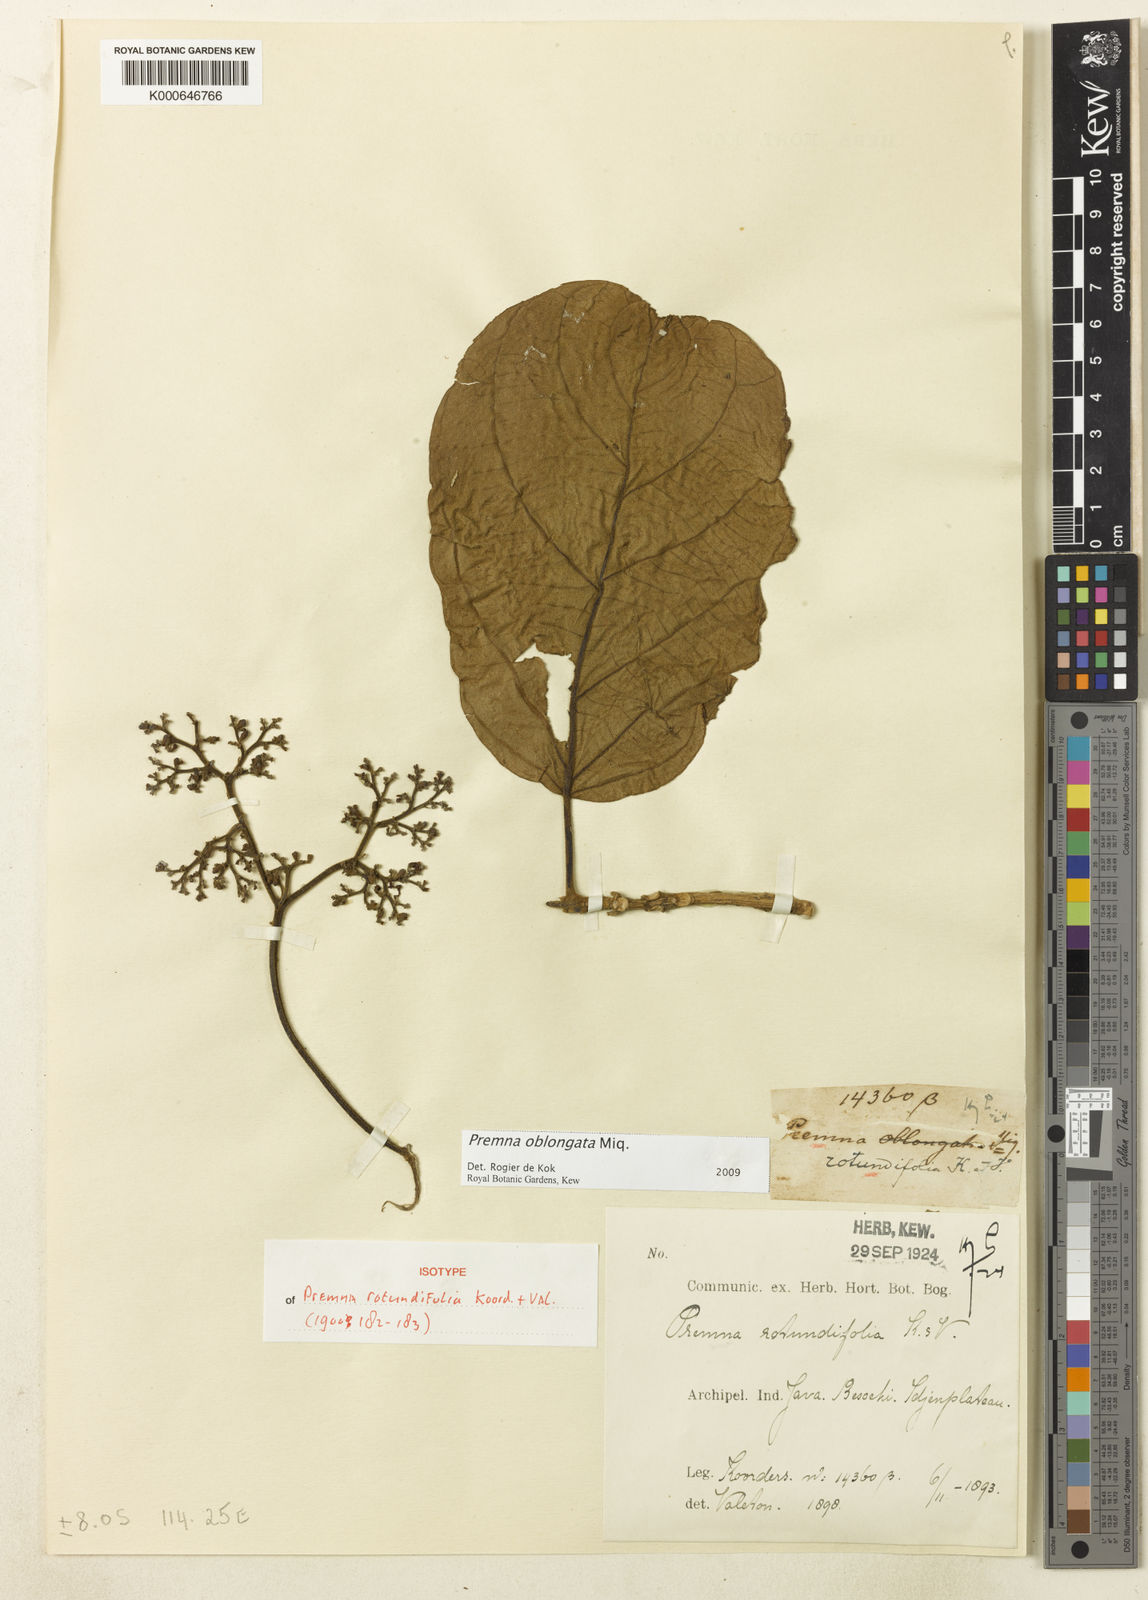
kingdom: Plantae
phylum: Tracheophyta
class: Magnoliopsida
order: Lamiales
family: Lamiaceae
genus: Premna
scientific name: Premna oblongata
